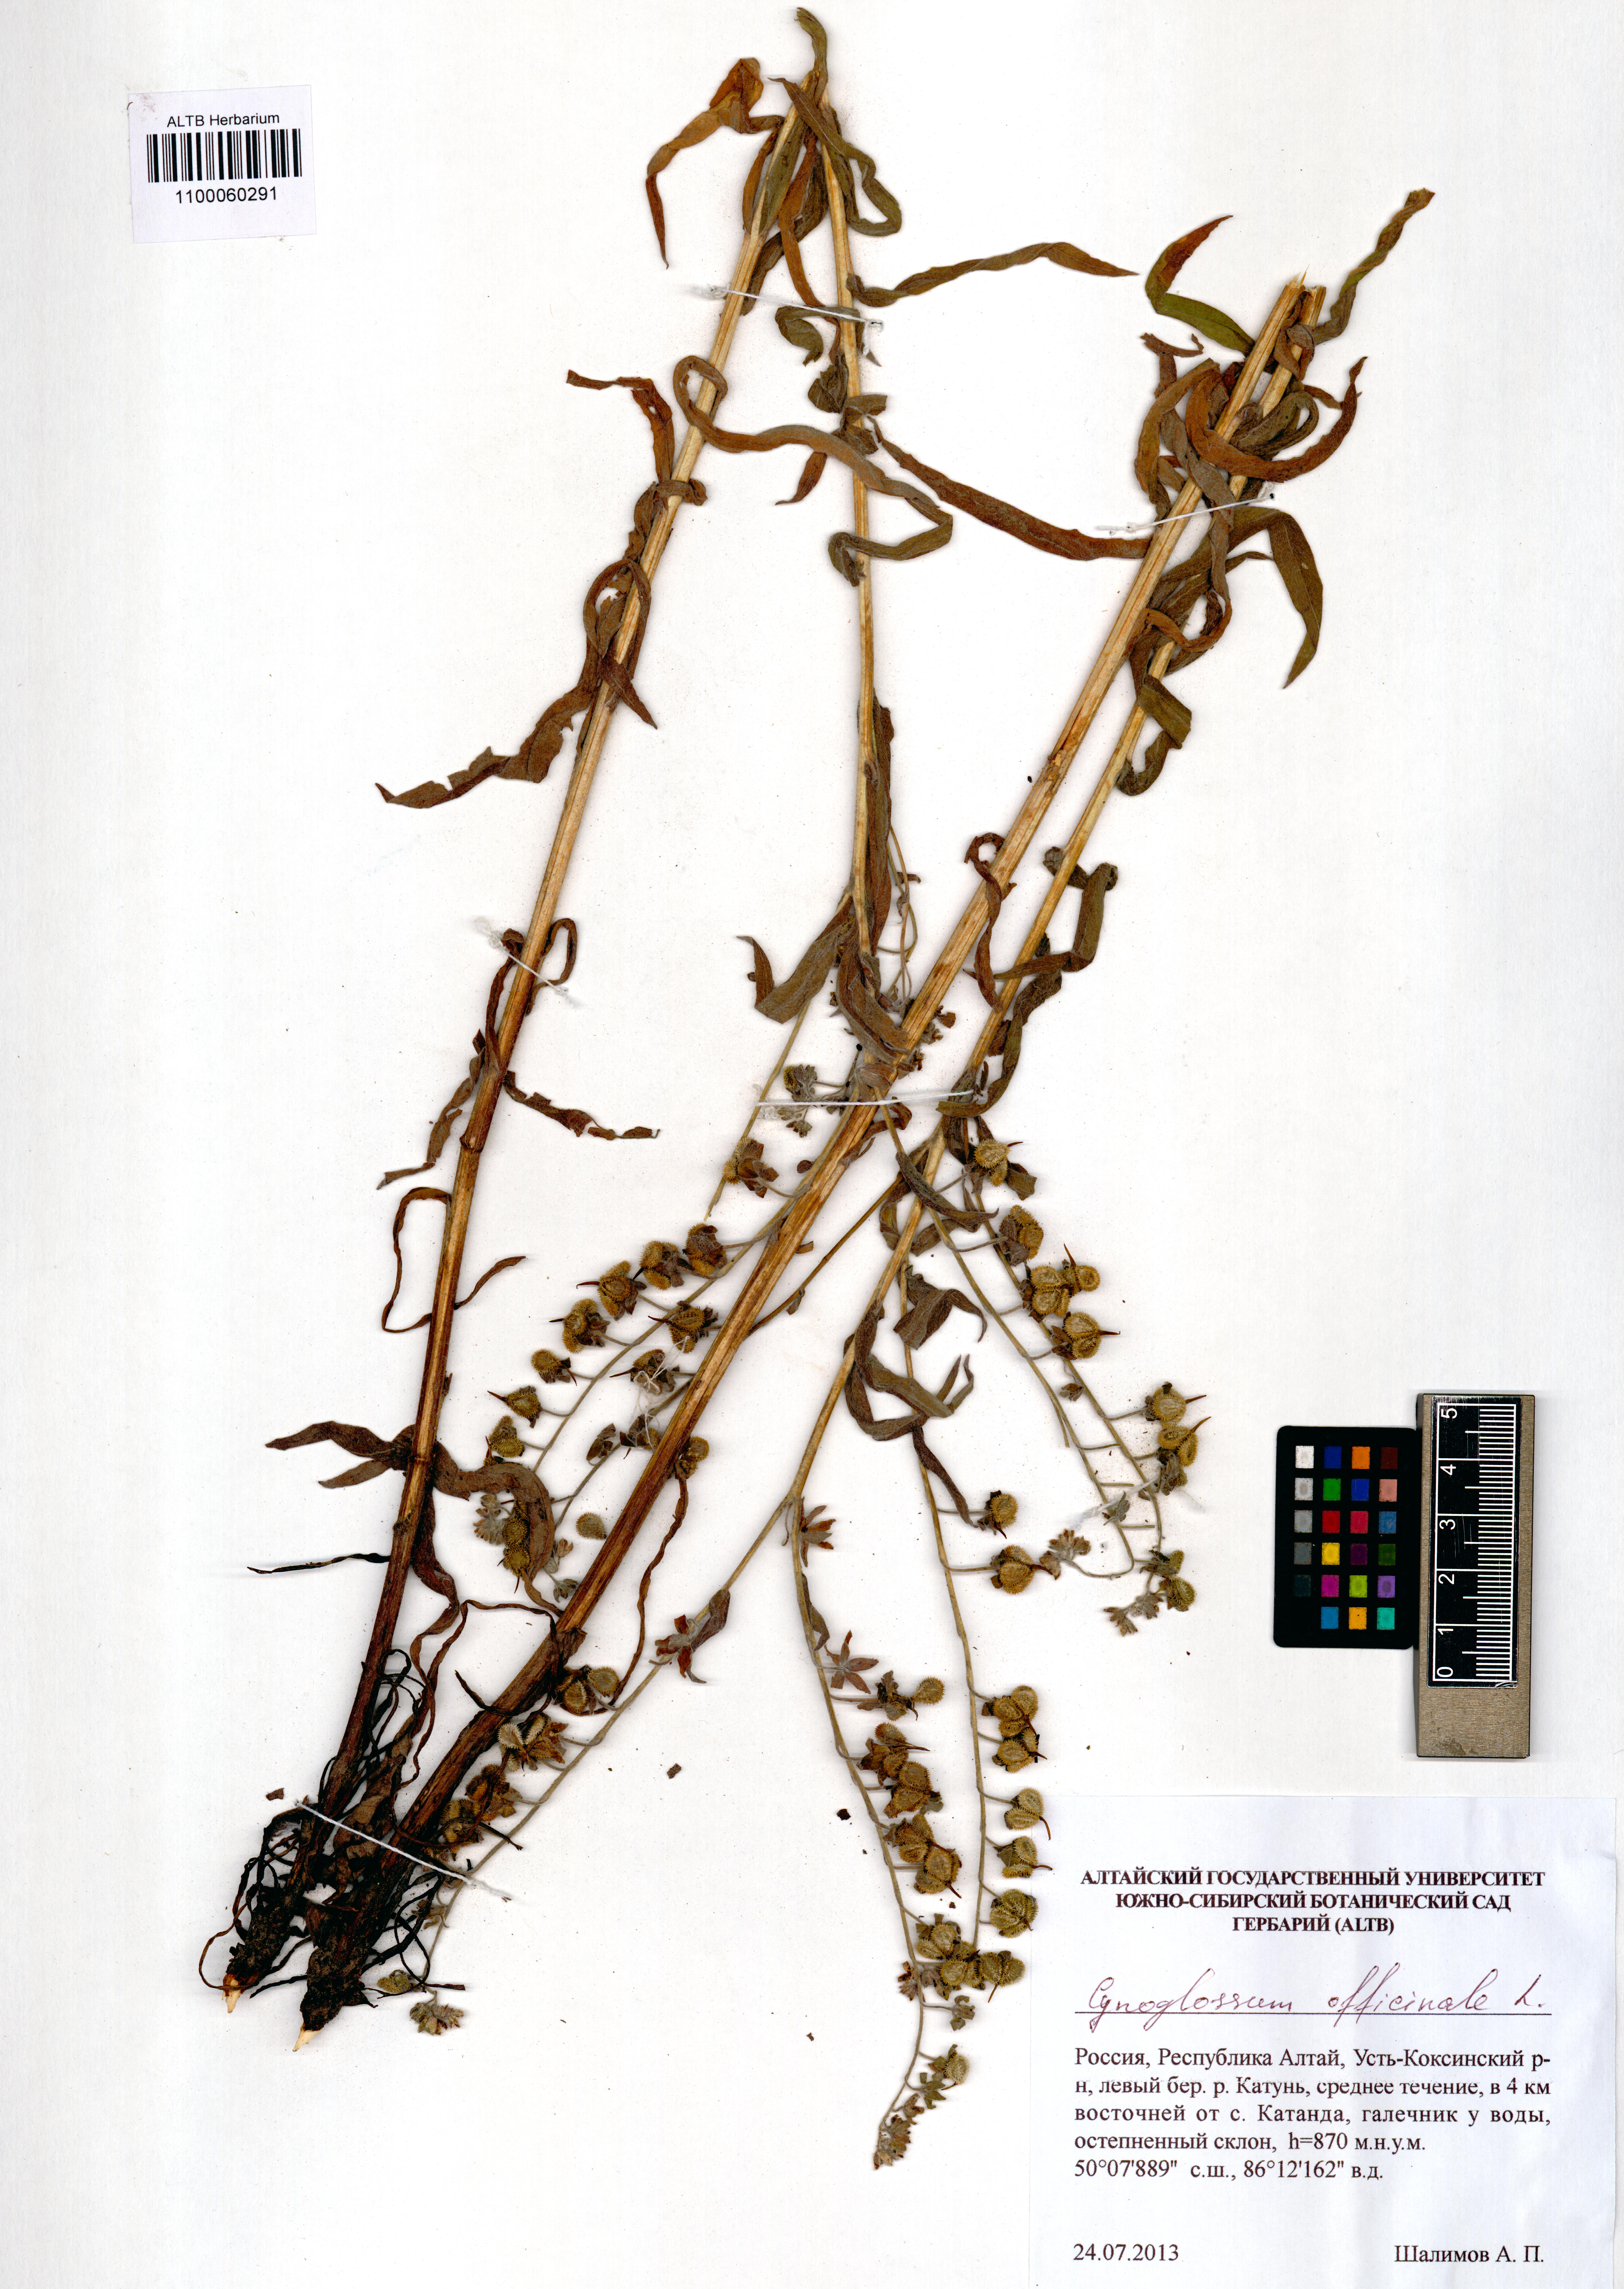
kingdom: Plantae
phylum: Tracheophyta
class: Magnoliopsida
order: Boraginales
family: Boraginaceae
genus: Cynoglossum
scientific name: Cynoglossum officinale
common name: Hound's-tongue
